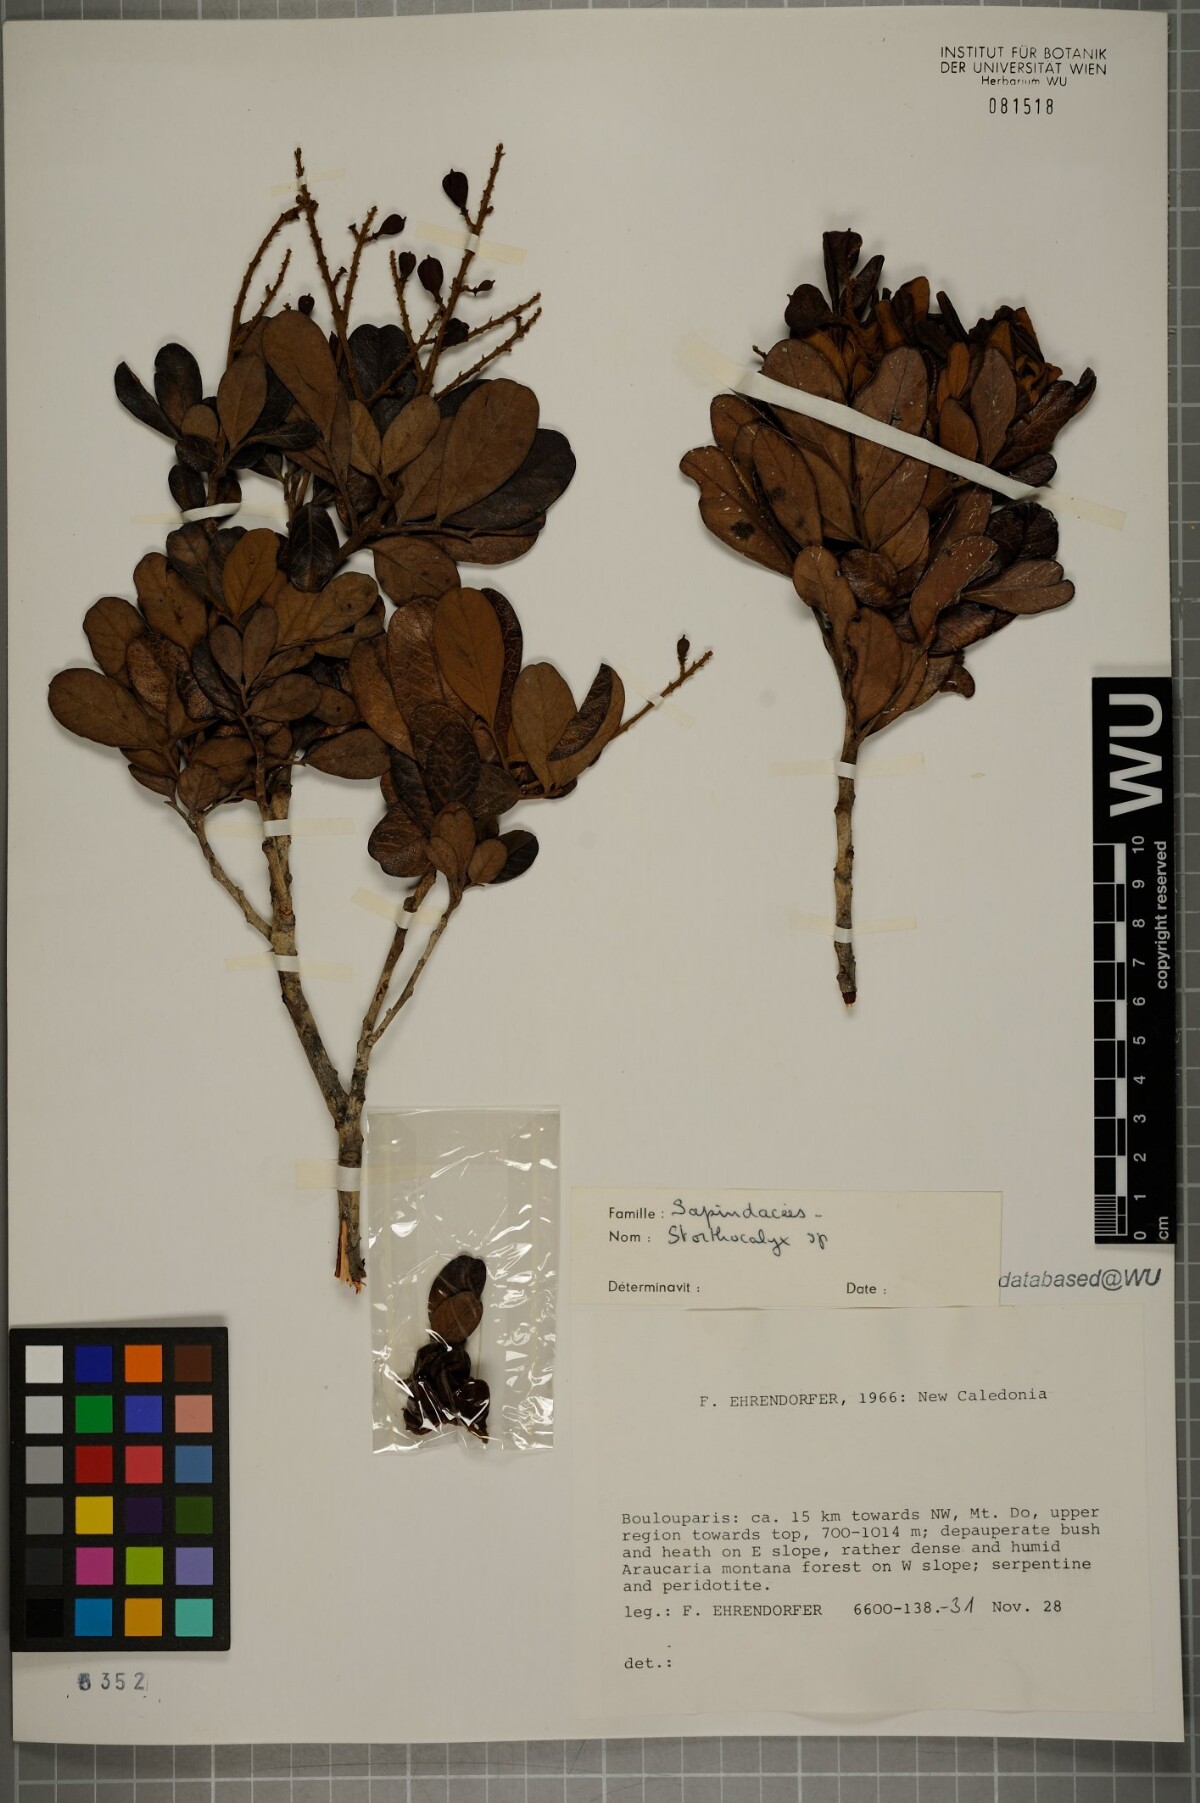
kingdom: Plantae
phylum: Tracheophyta
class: Magnoliopsida
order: Sapindales
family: Sapindaceae
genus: Storthocalyx
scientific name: Storthocalyx
